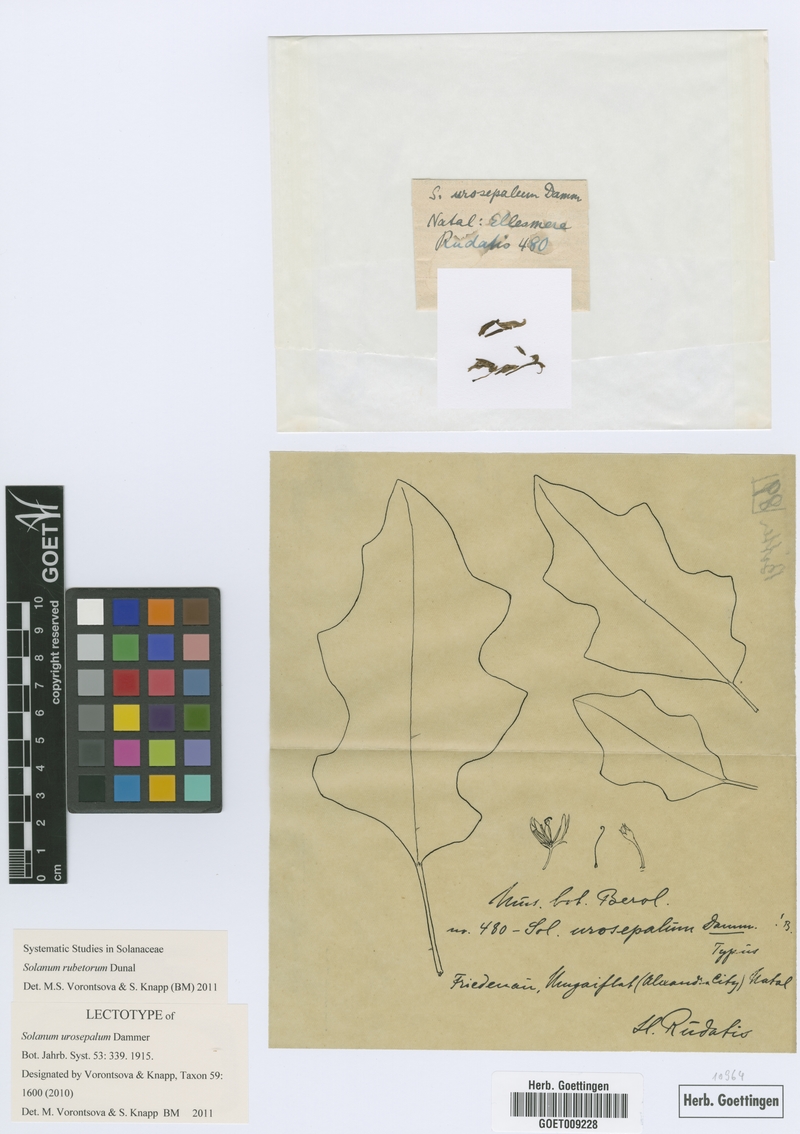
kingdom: Plantae
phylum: Tracheophyta
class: Magnoliopsida
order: Solanales
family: Solanaceae
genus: Solanum
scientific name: Solanum rubetorum
